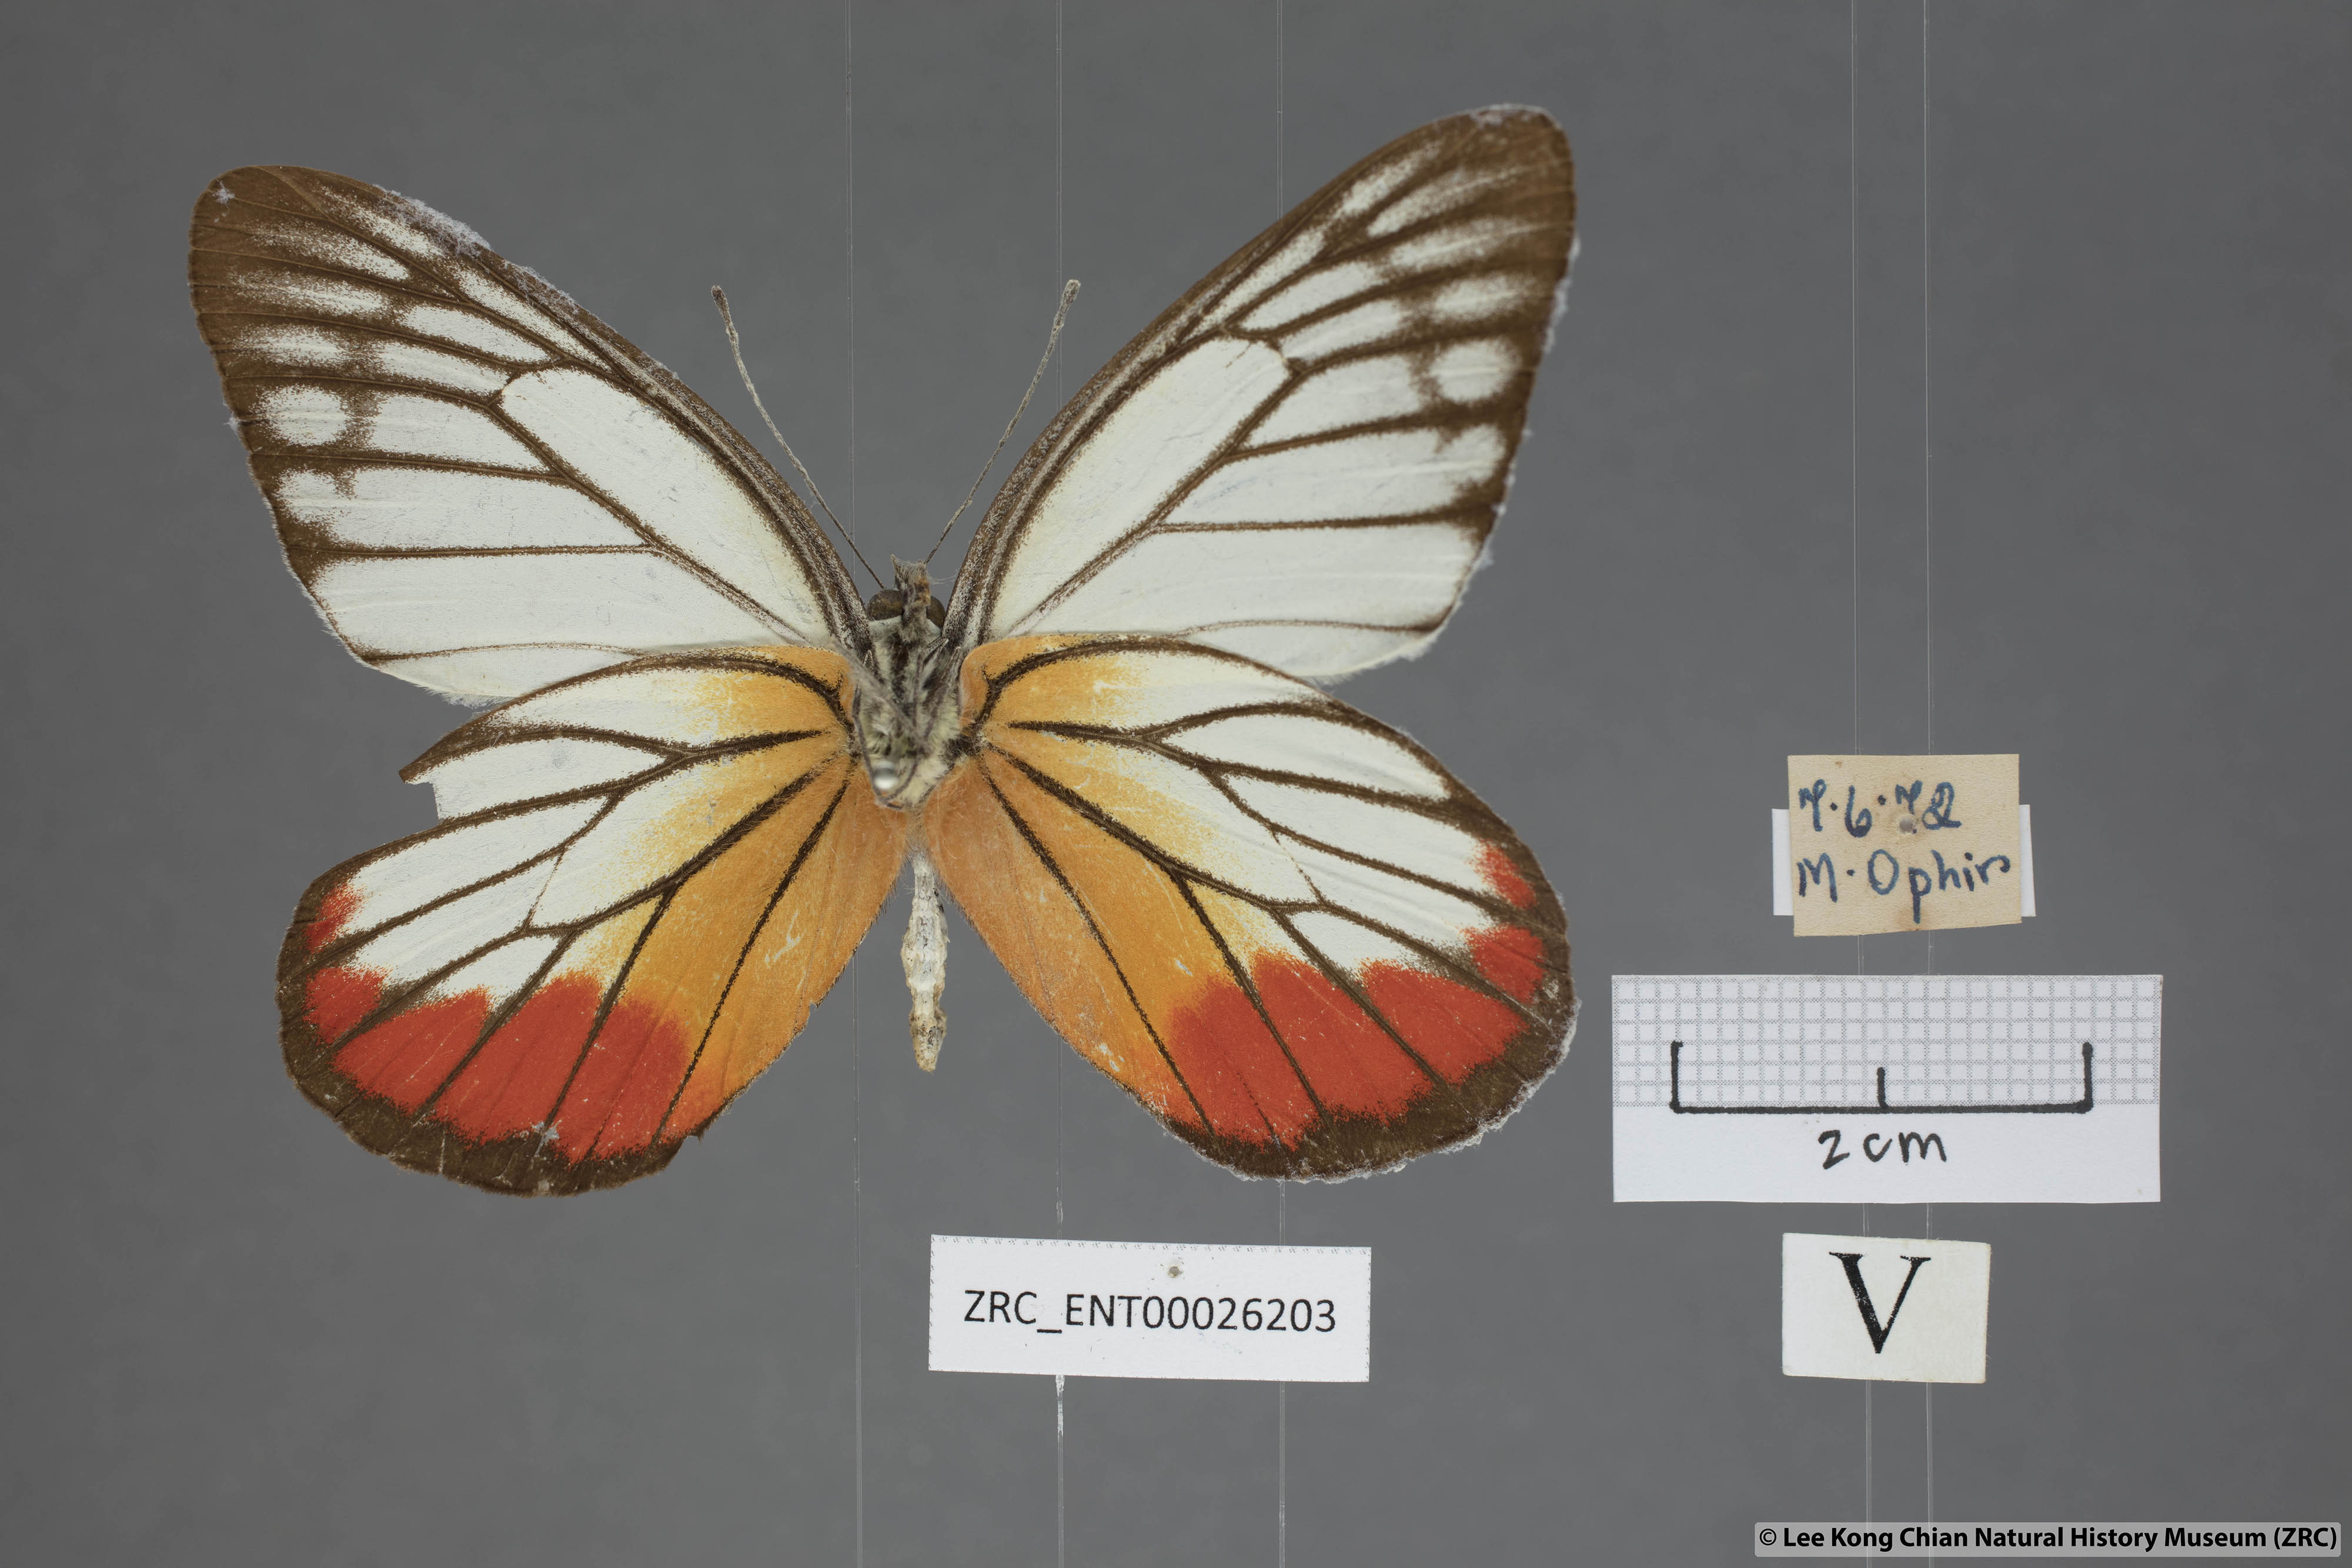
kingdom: Animalia
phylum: Arthropoda
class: Insecta
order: Lepidoptera
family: Pieridae
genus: Delias
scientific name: Delias hyparete
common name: Painted jezebel
